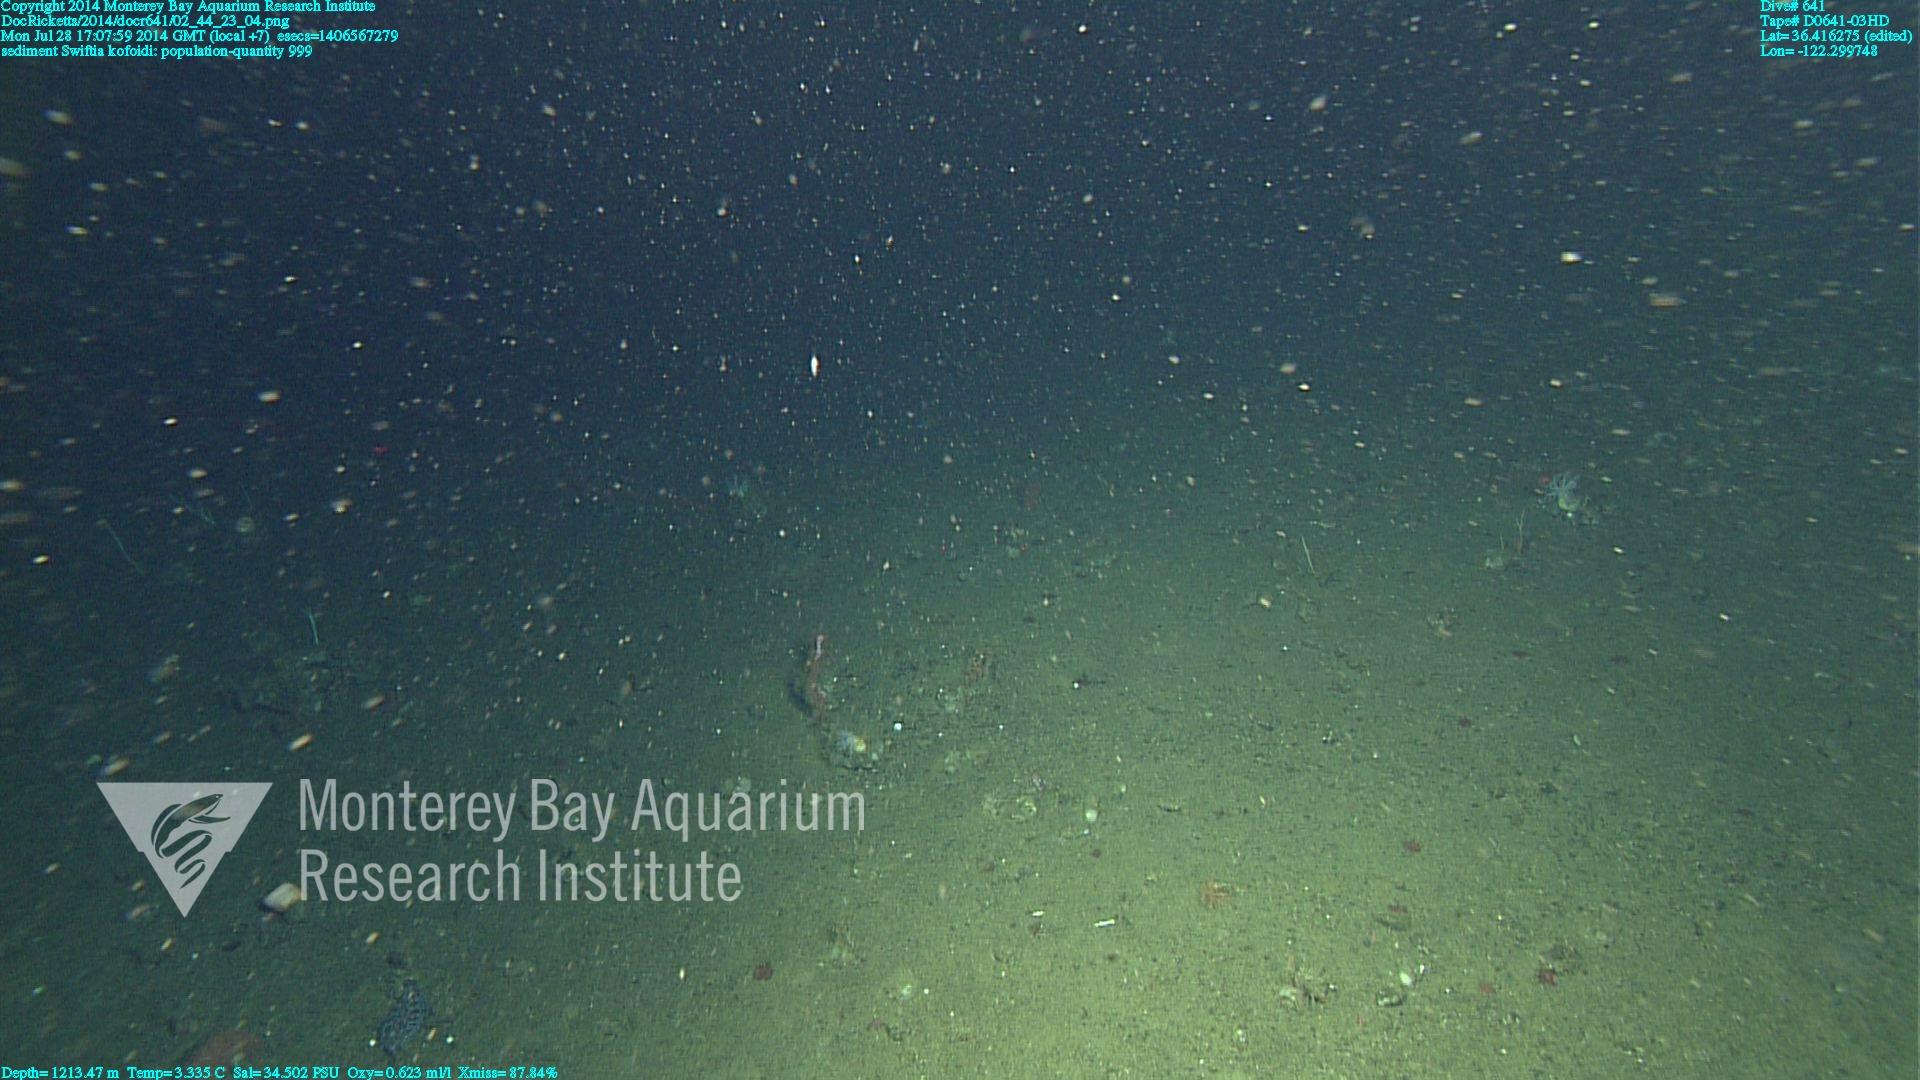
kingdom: Animalia
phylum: Cnidaria
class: Anthozoa
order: Malacalcyonacea
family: Gorgoniidae
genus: Callistephanus
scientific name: Callistephanus kofoidi
